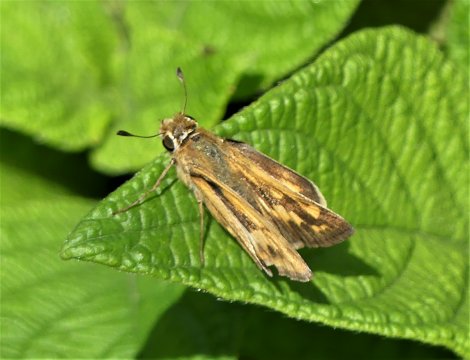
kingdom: Animalia
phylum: Arthropoda
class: Insecta
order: Lepidoptera
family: Hesperiidae
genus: Hylephila
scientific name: Hylephila phyleus
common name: Fiery Skipper
